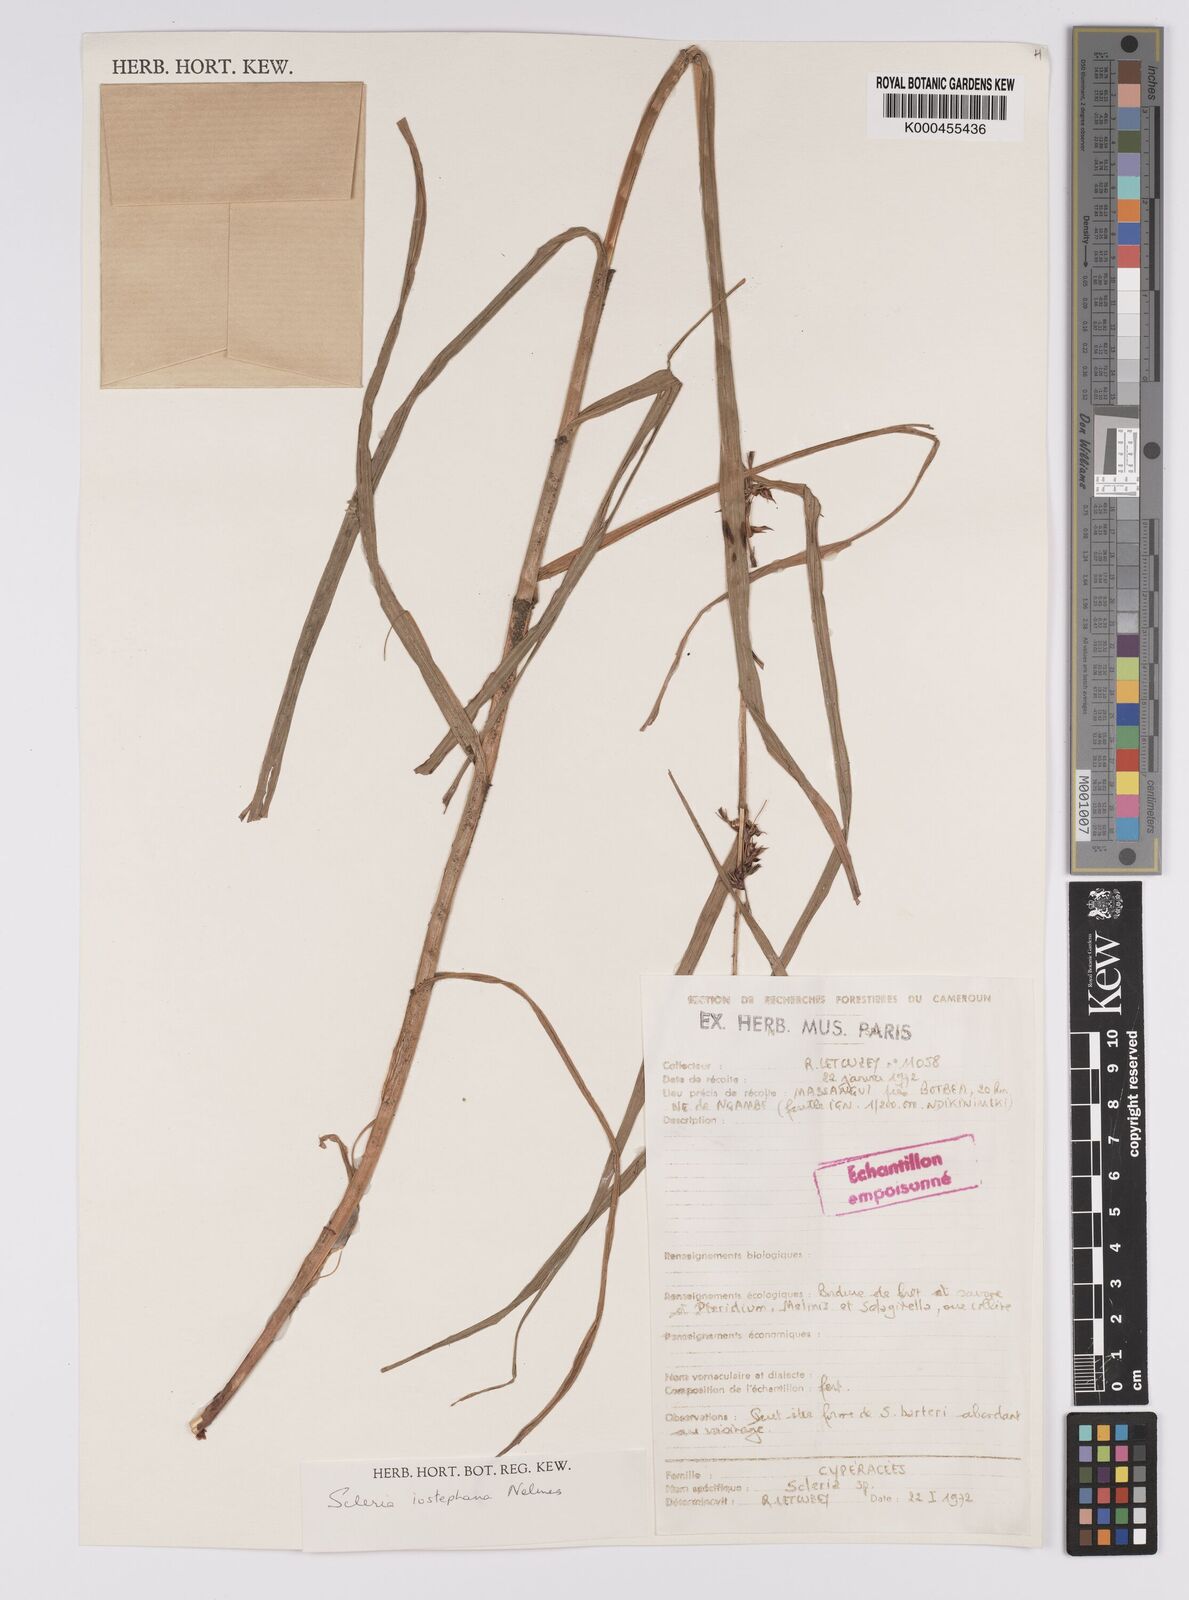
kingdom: Plantae
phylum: Tracheophyta
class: Liliopsida
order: Poales
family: Cyperaceae
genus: Scleria
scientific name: Scleria iostephana
